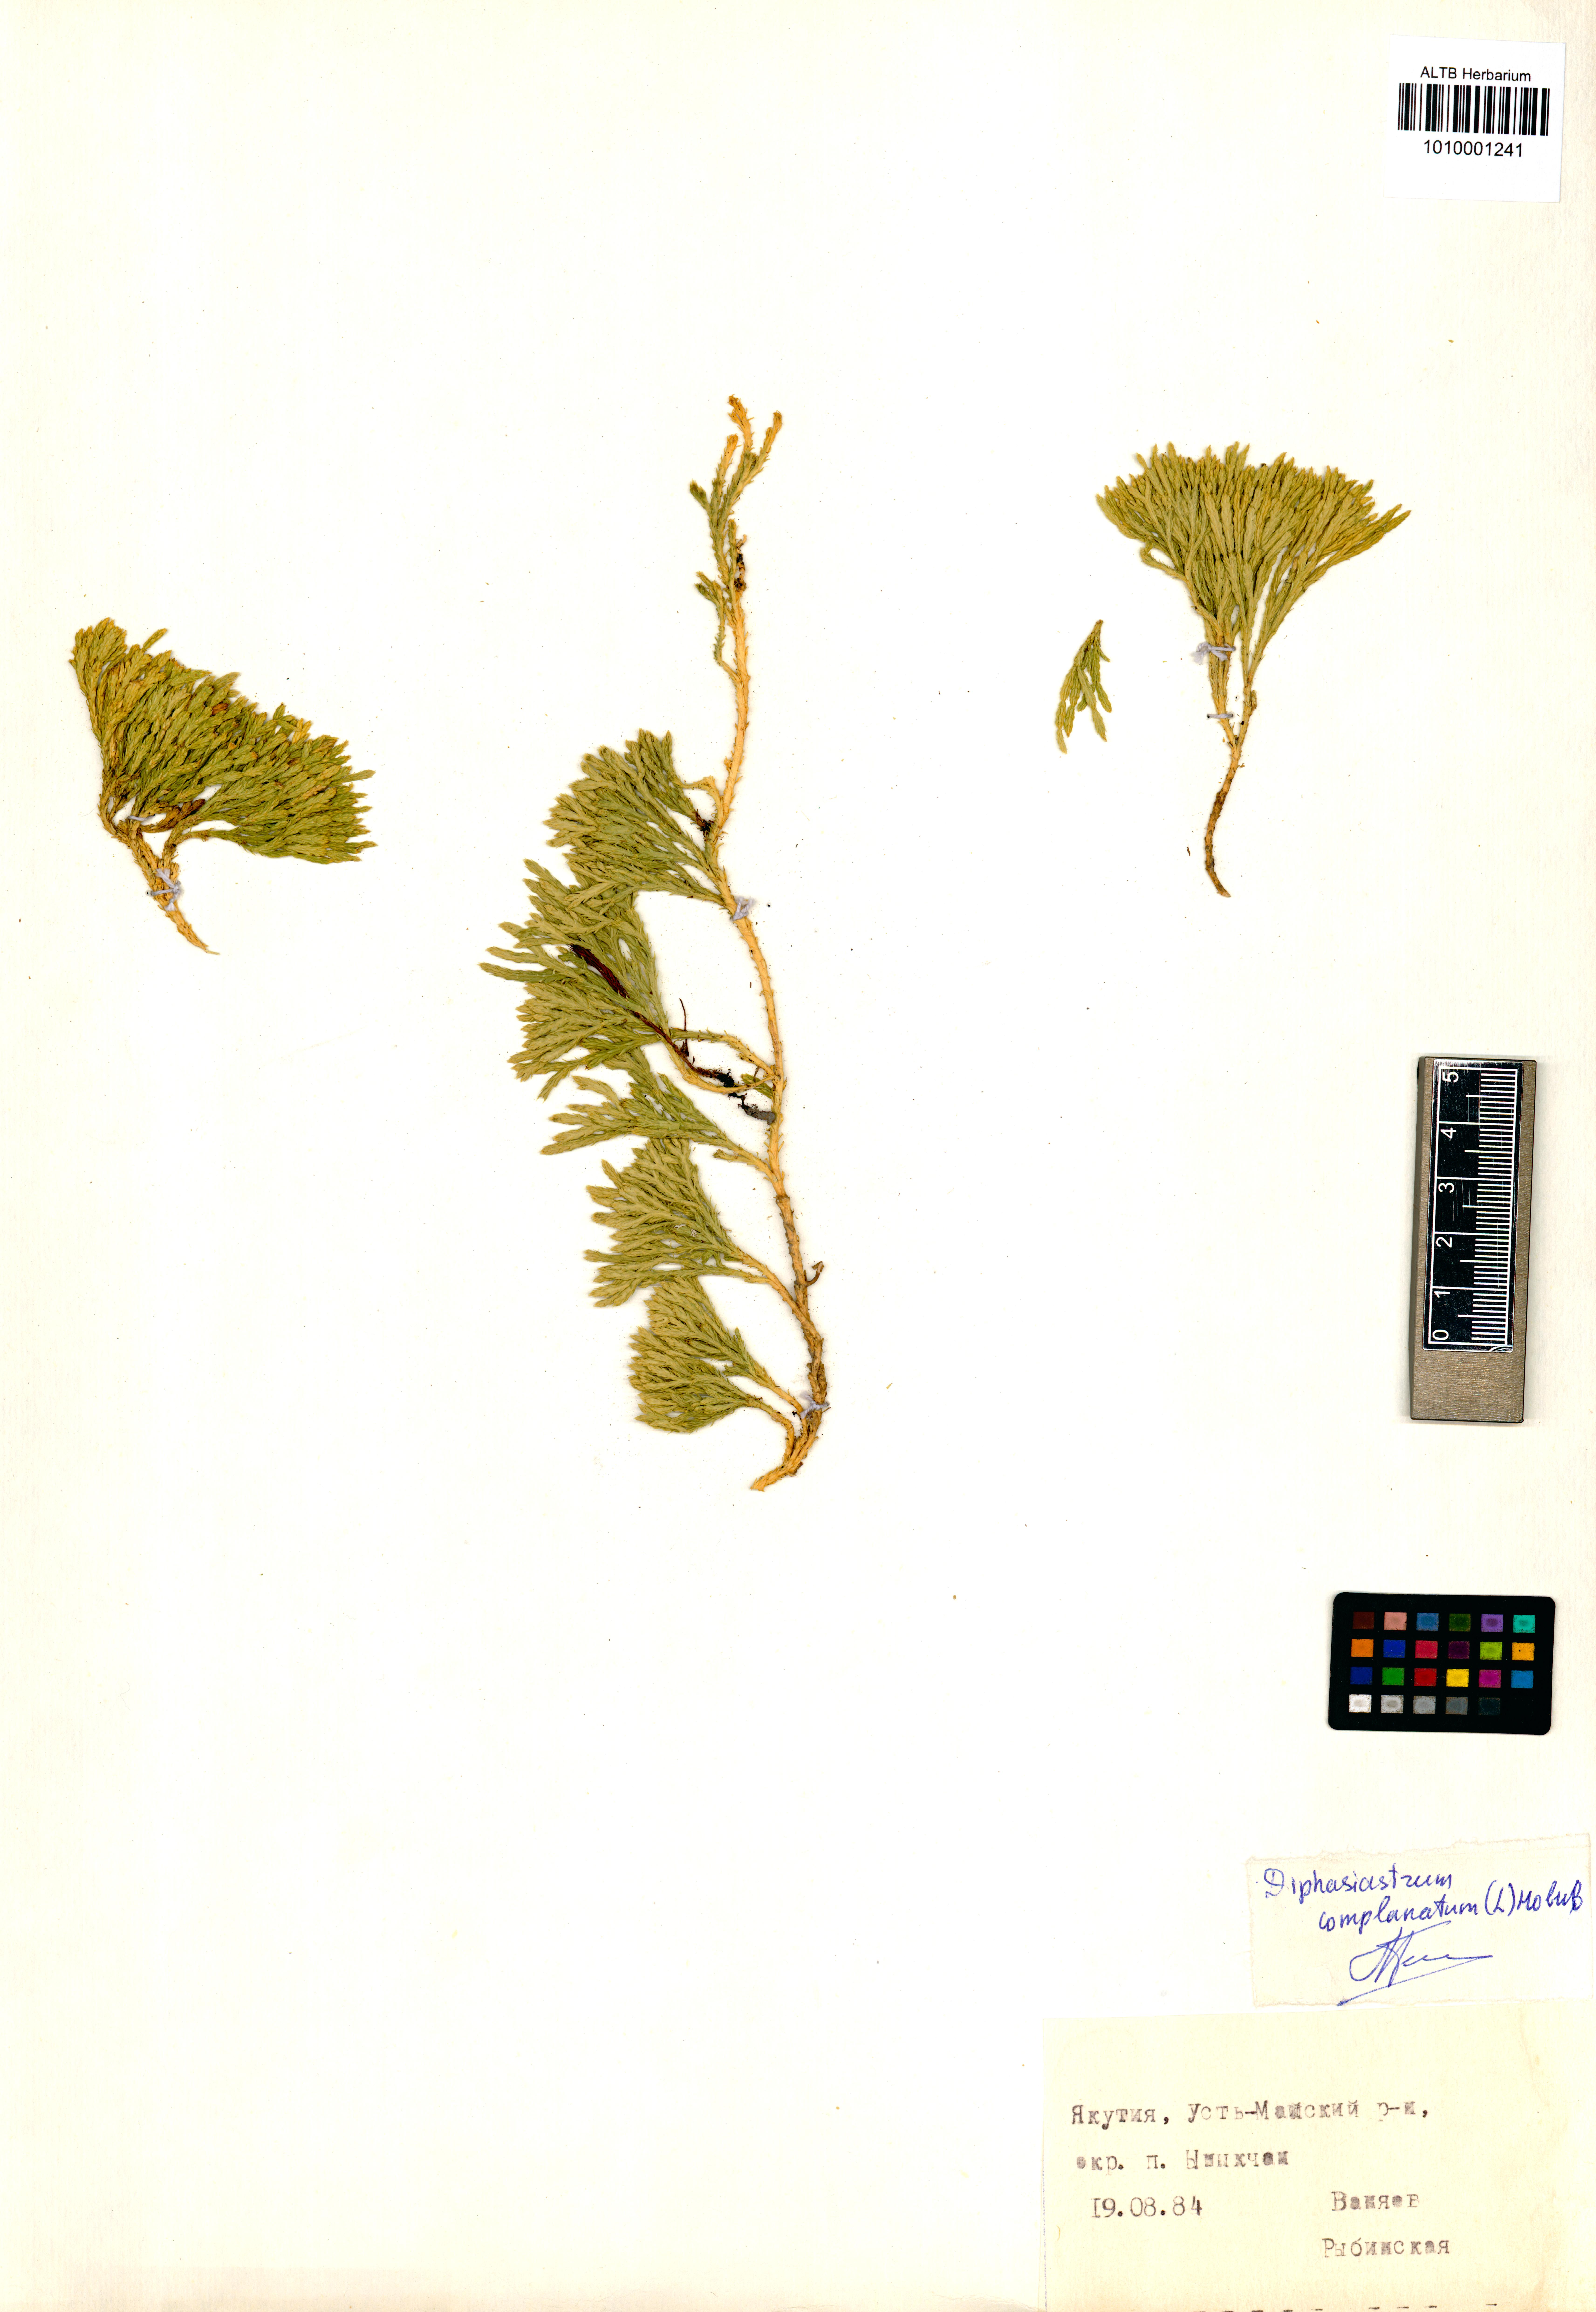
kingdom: Plantae
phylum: Tracheophyta
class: Lycopodiopsida
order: Lycopodiales
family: Lycopodiaceae
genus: Diphasiastrum
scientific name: Diphasiastrum complanatum
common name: Northern running-pine
